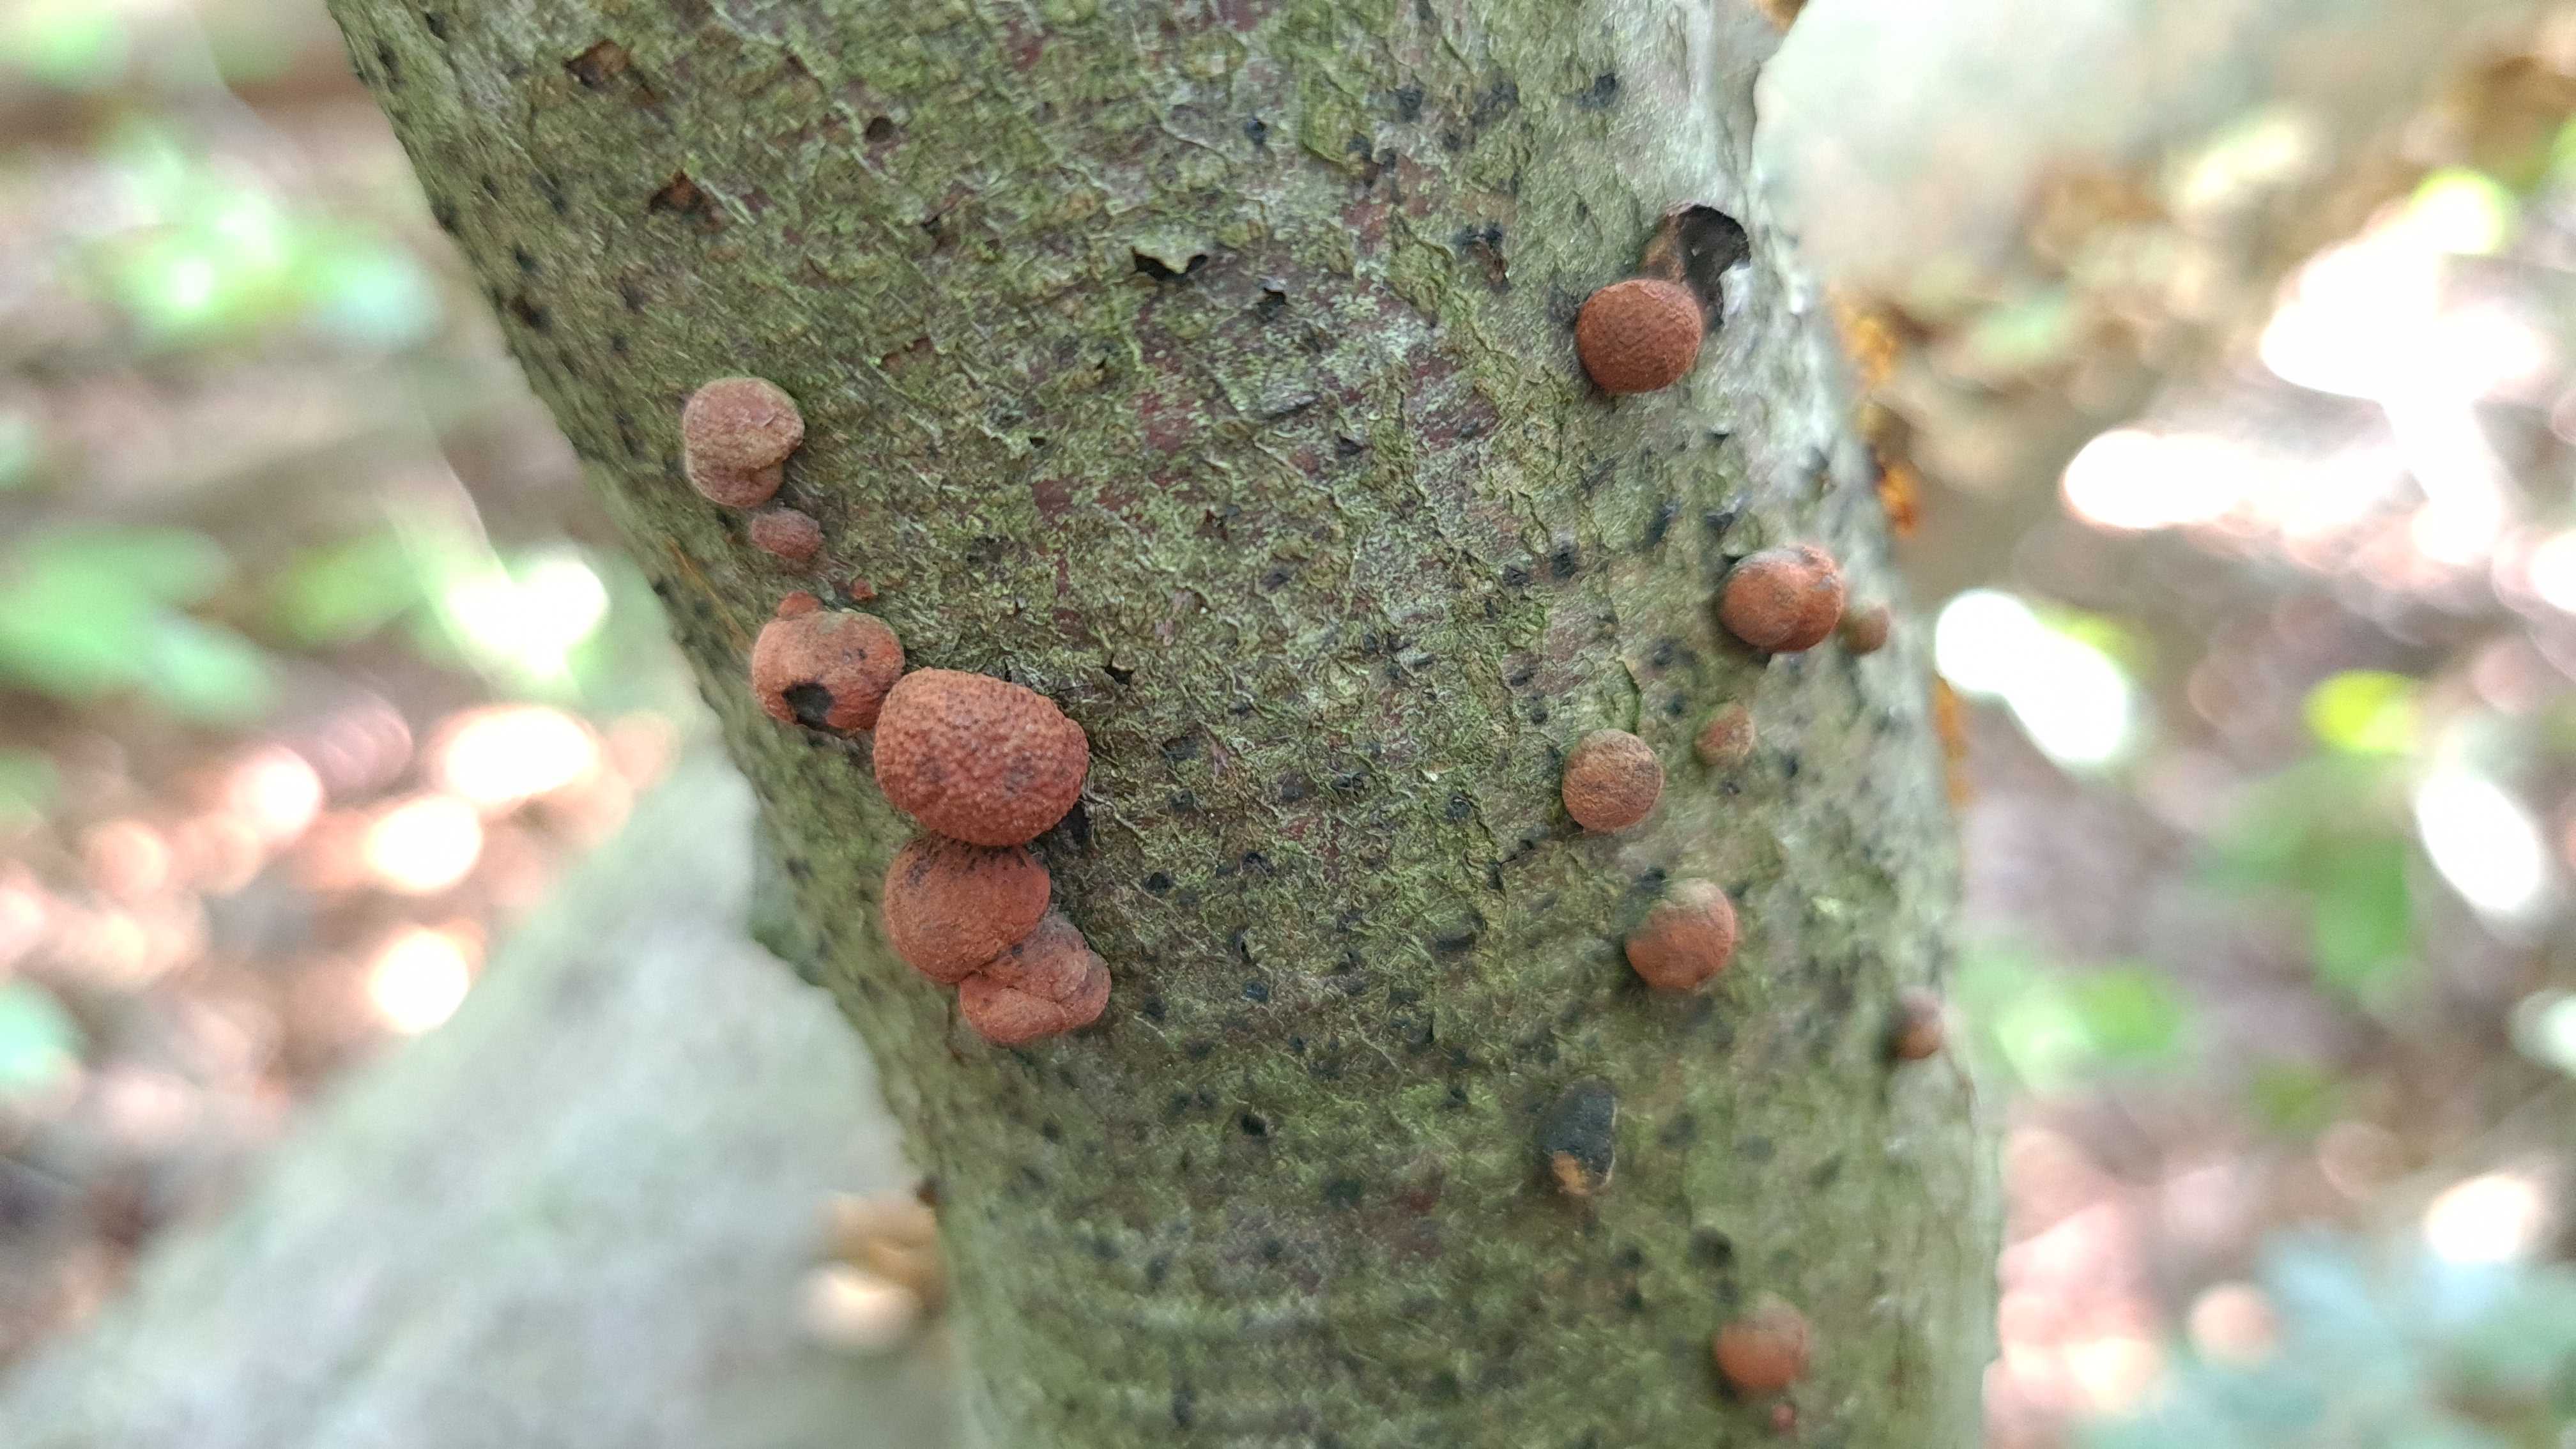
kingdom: Fungi
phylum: Ascomycota
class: Sordariomycetes
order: Xylariales
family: Hypoxylaceae
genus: Hypoxylon
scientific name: Hypoxylon fragiforme
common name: kuljordbær
